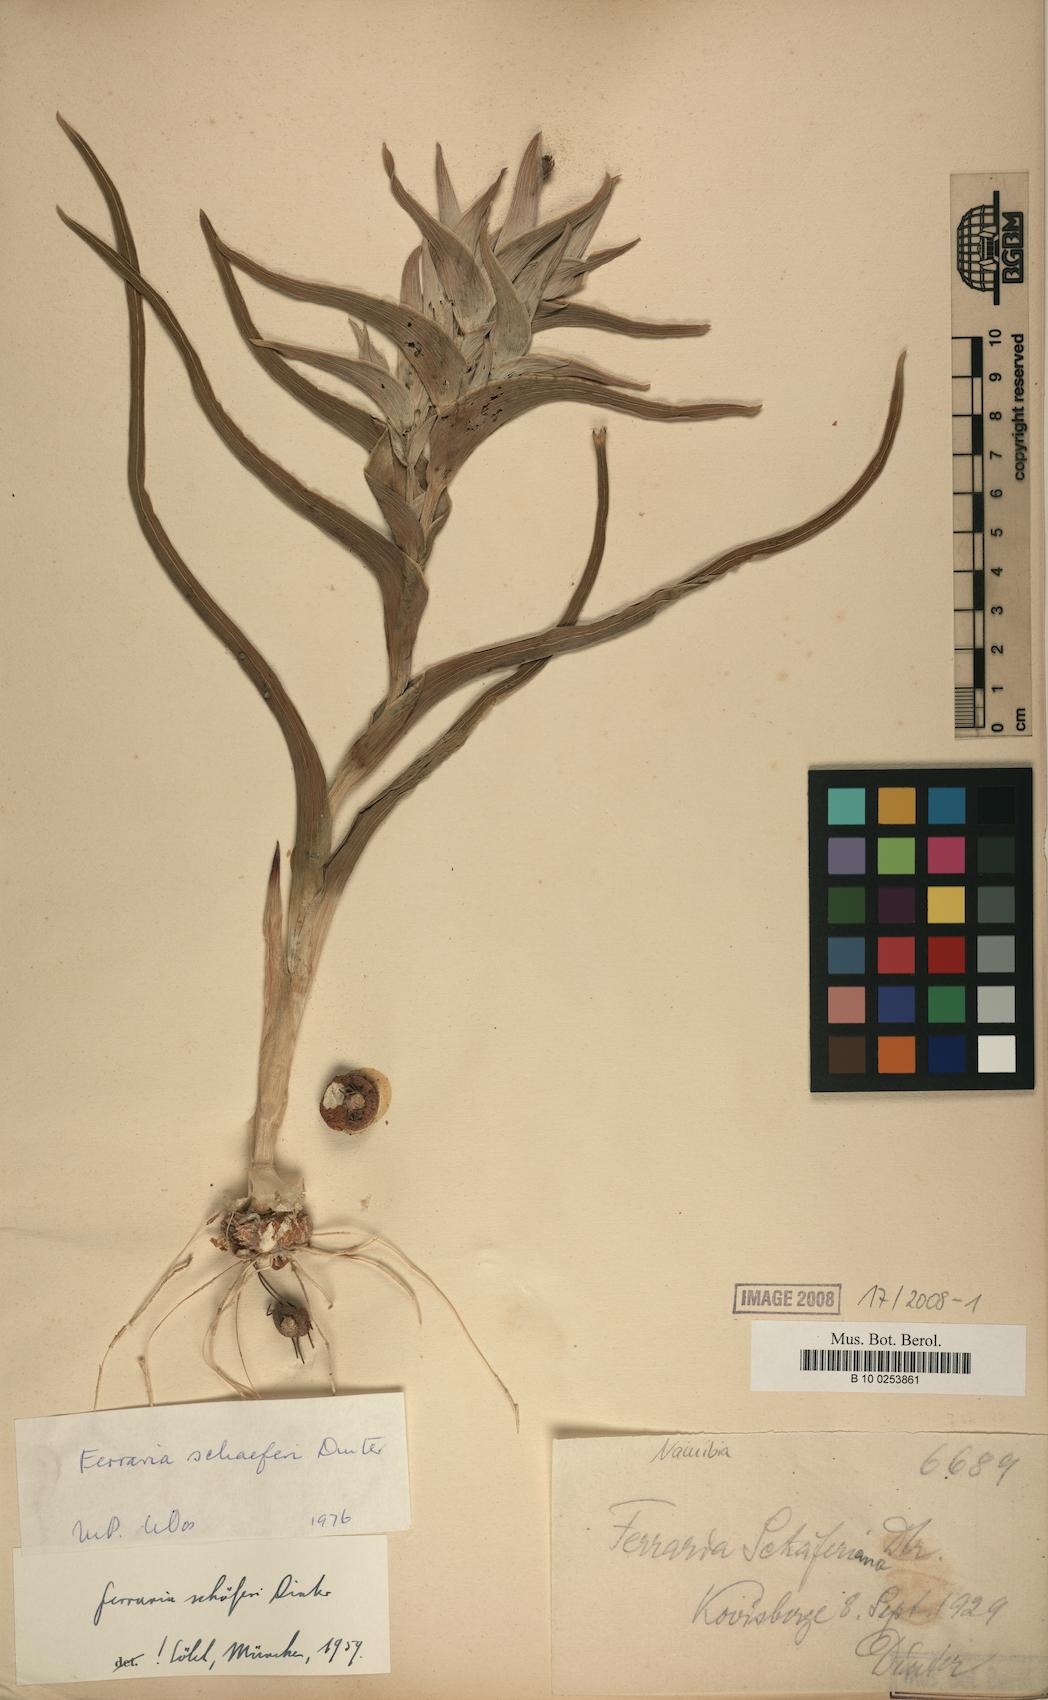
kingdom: Plantae
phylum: Tracheophyta
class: Liliopsida
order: Asparagales
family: Iridaceae
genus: Ferraria
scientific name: Ferraria schaeferi
